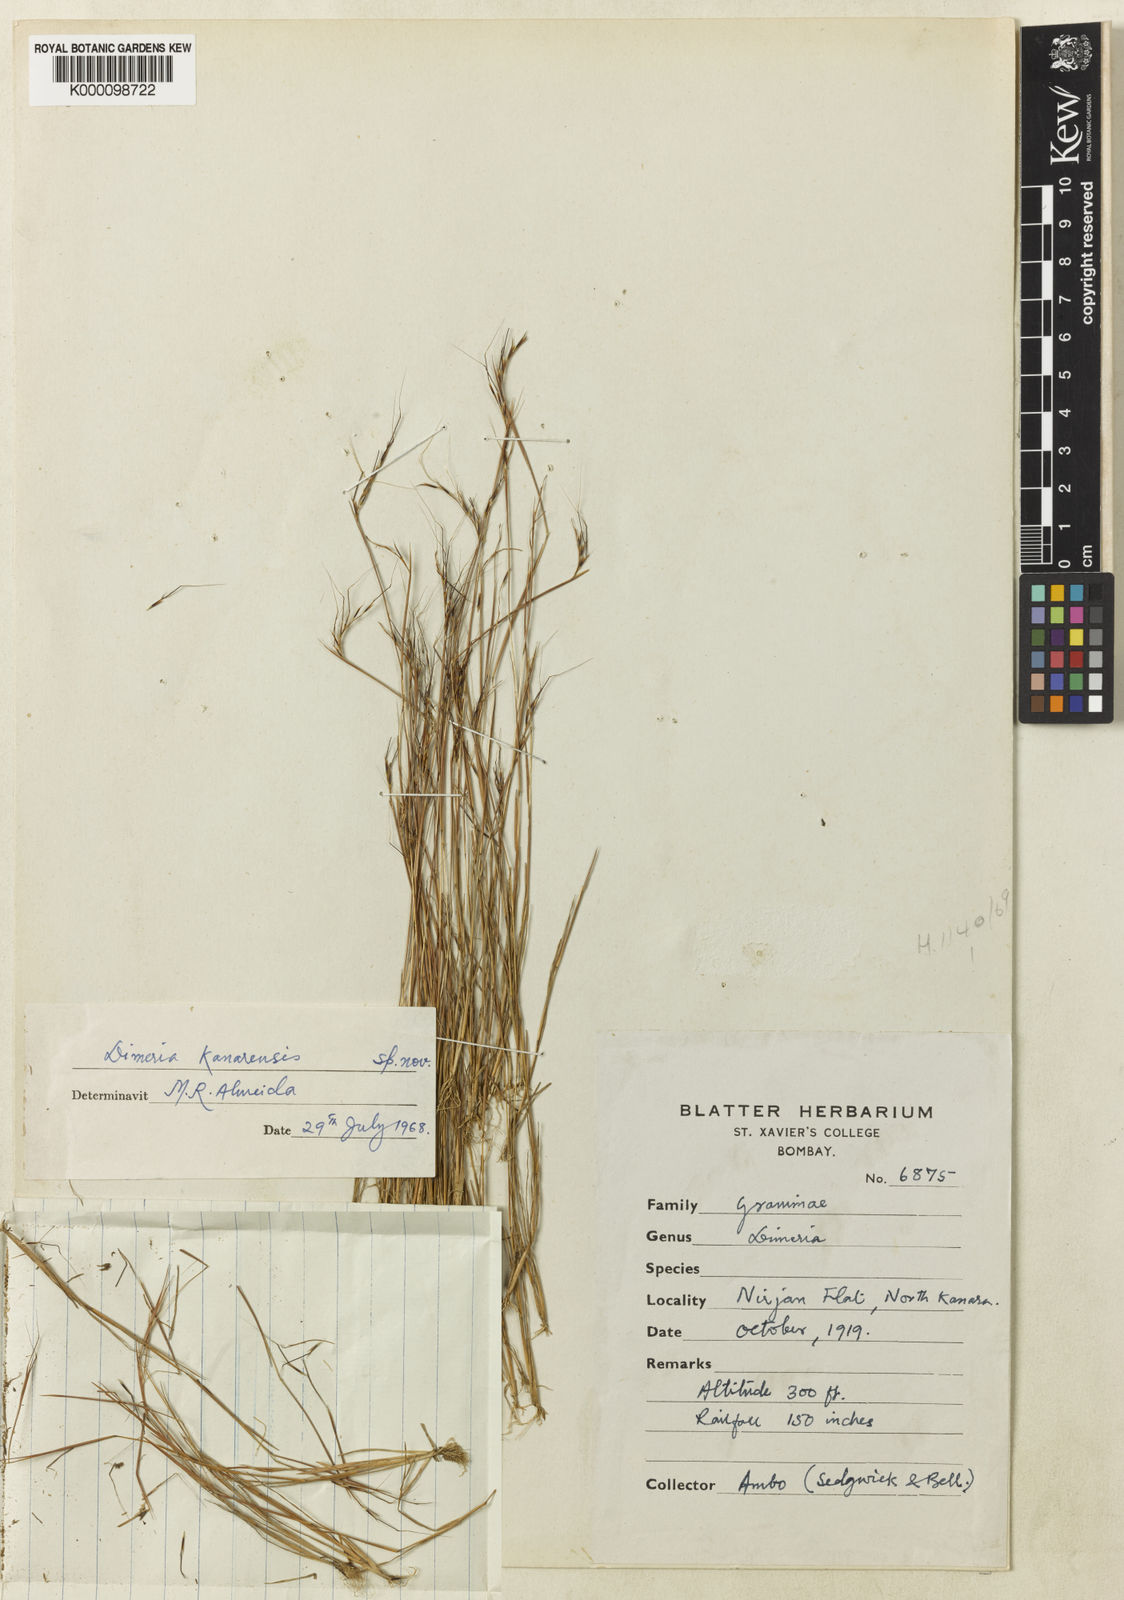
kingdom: Plantae
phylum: Tracheophyta
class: Liliopsida
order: Poales
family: Poaceae
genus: Nanooravia
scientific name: Nanooravia santapaui
